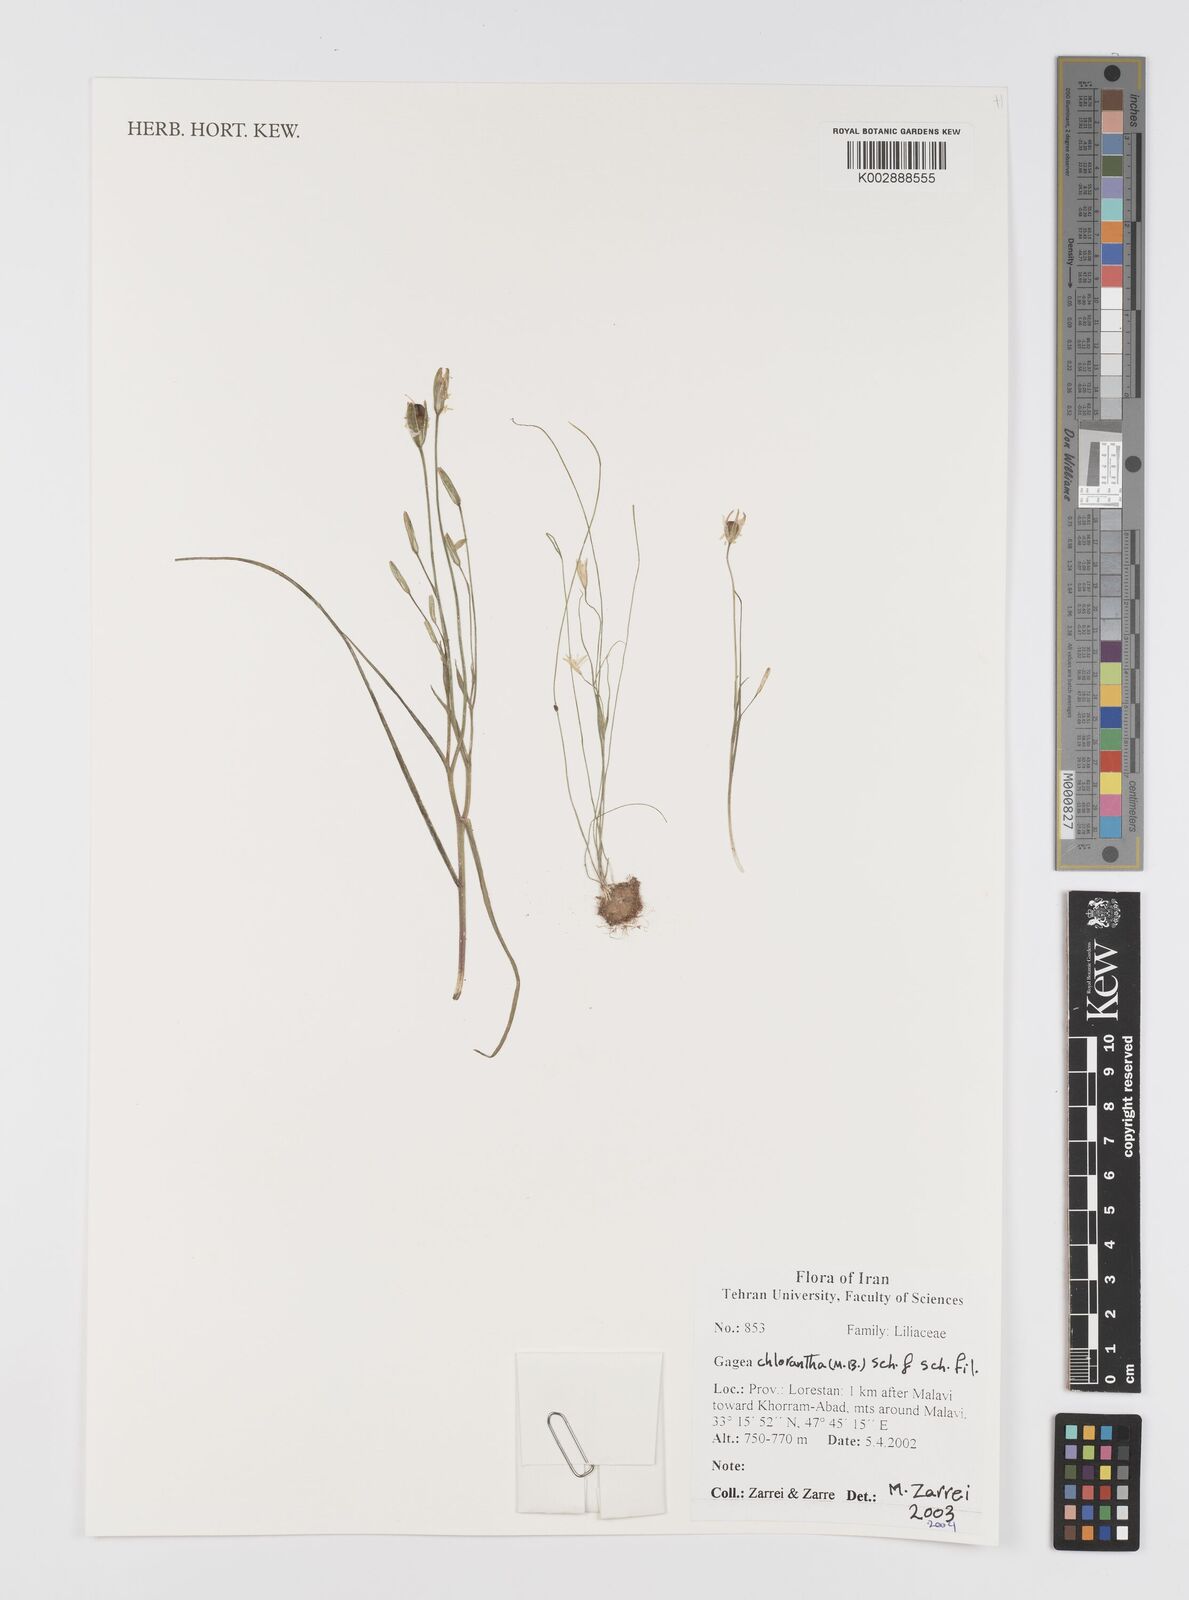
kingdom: Plantae
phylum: Tracheophyta
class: Liliopsida
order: Liliales
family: Liliaceae
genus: Gagea
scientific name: Gagea chlorantha
